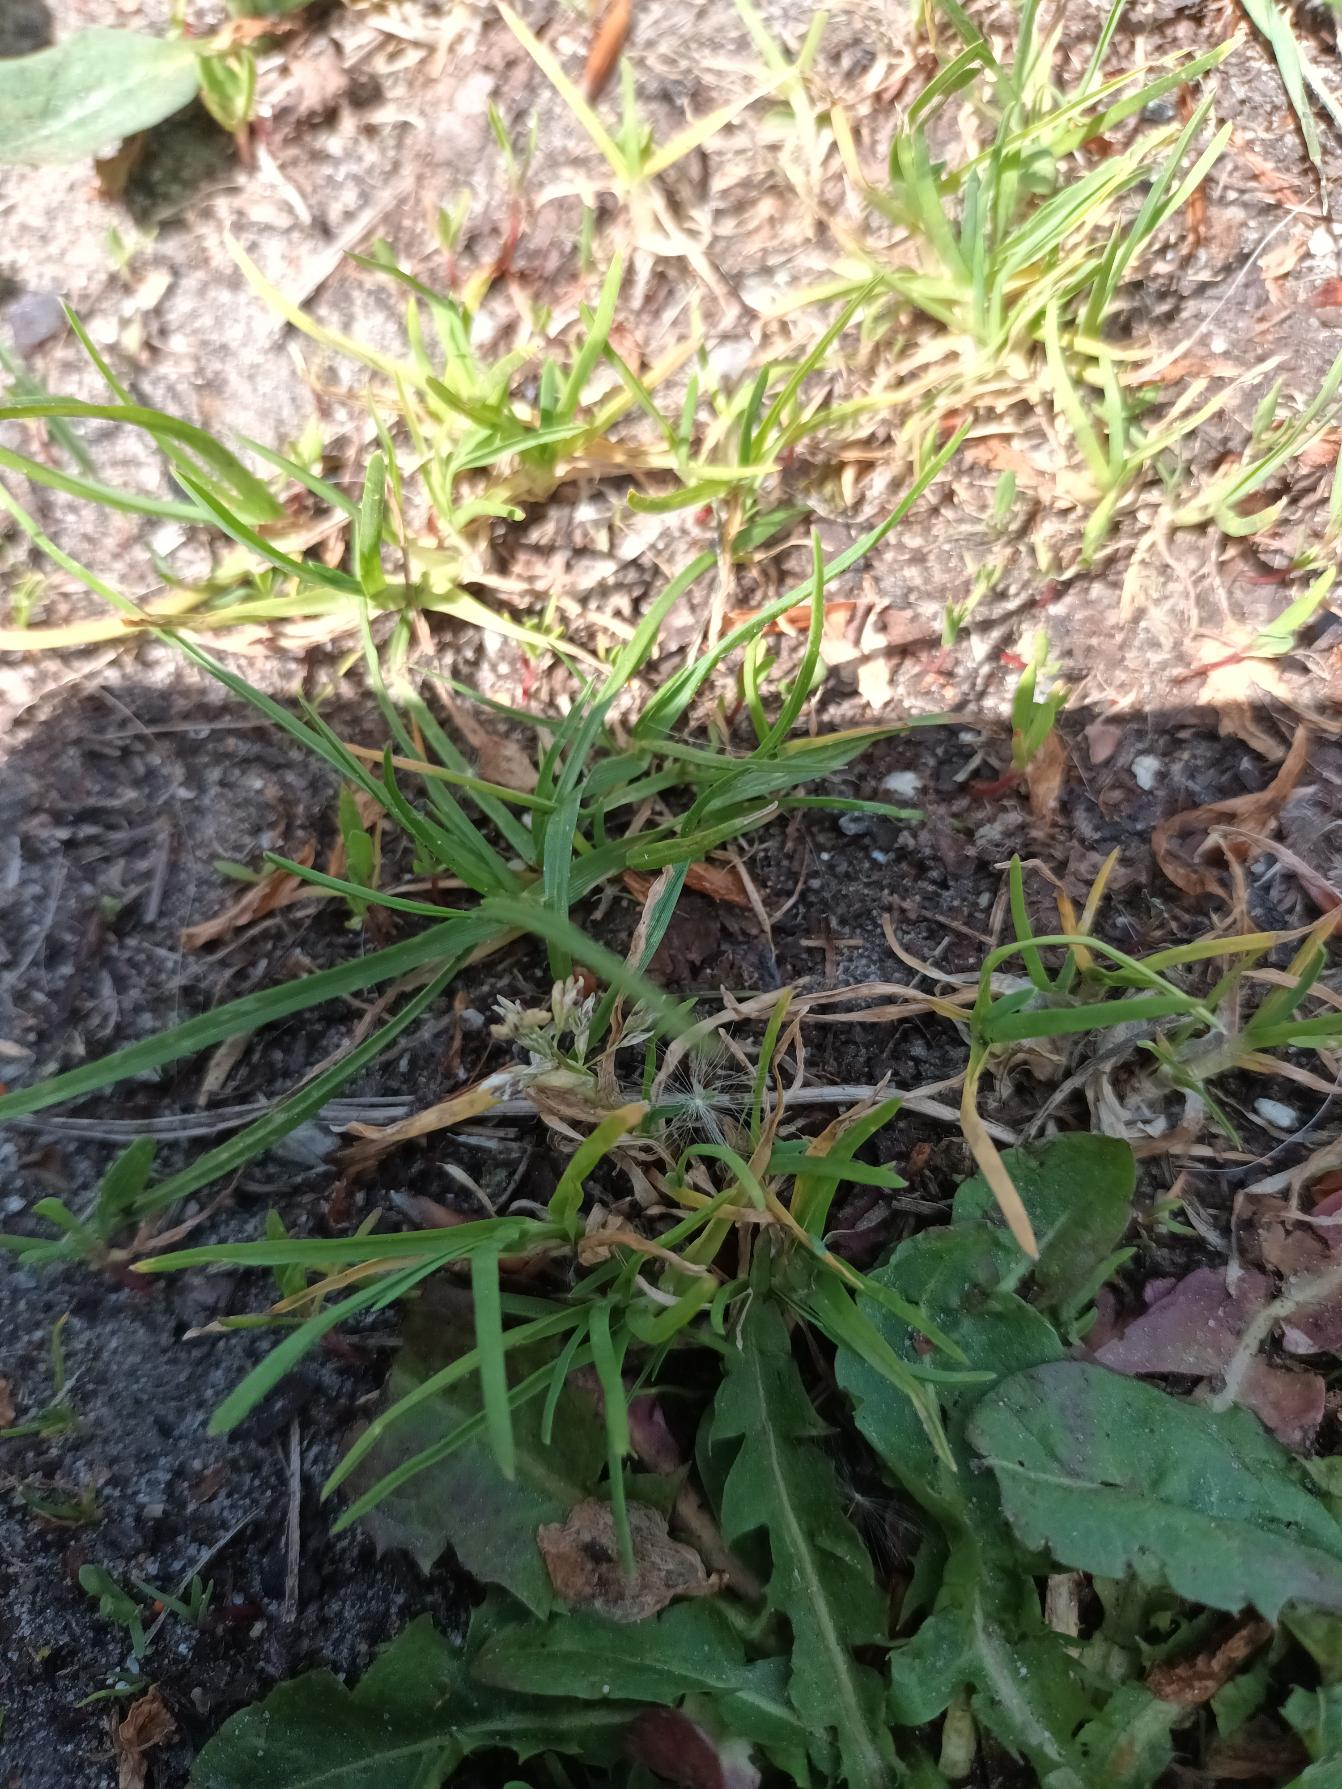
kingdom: Plantae
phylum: Tracheophyta
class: Liliopsida
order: Poales
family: Poaceae
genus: Poa
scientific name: Poa annua
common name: Enårig rapgræs
